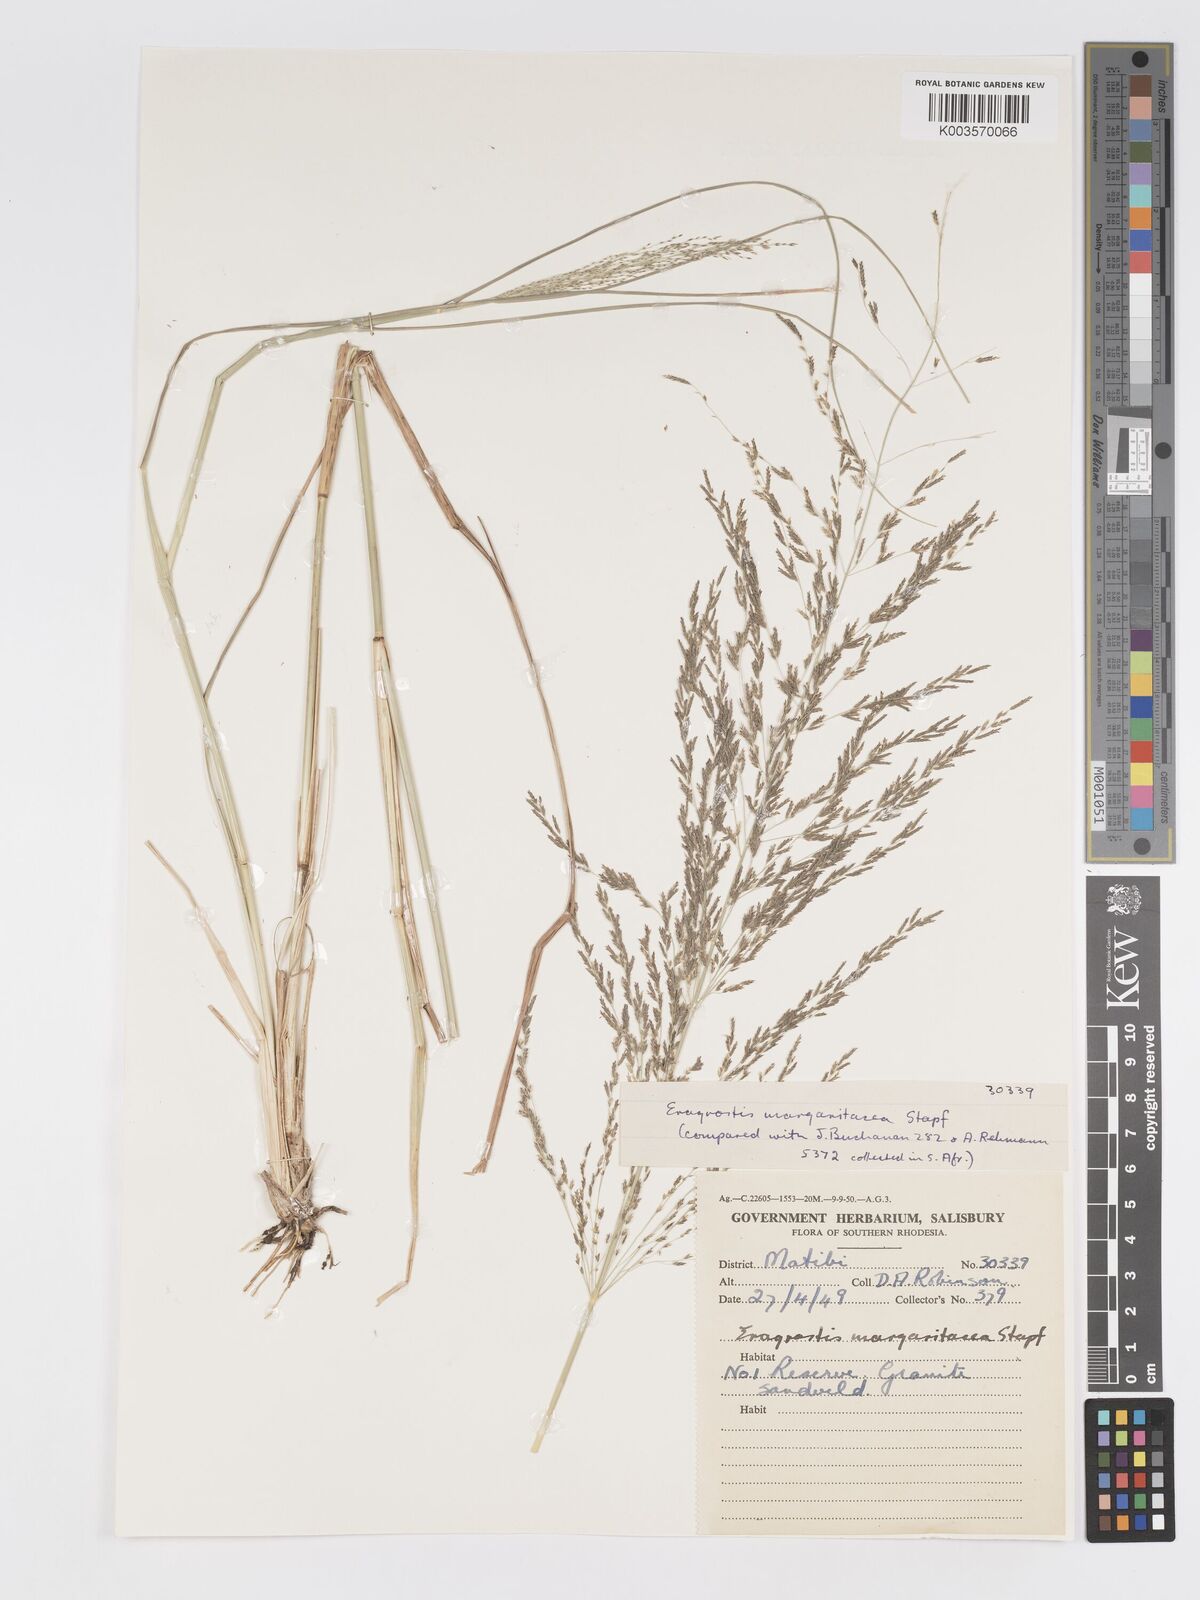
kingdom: Plantae
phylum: Tracheophyta
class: Liliopsida
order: Poales
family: Poaceae
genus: Eragrostis
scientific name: Eragrostis rotifer
